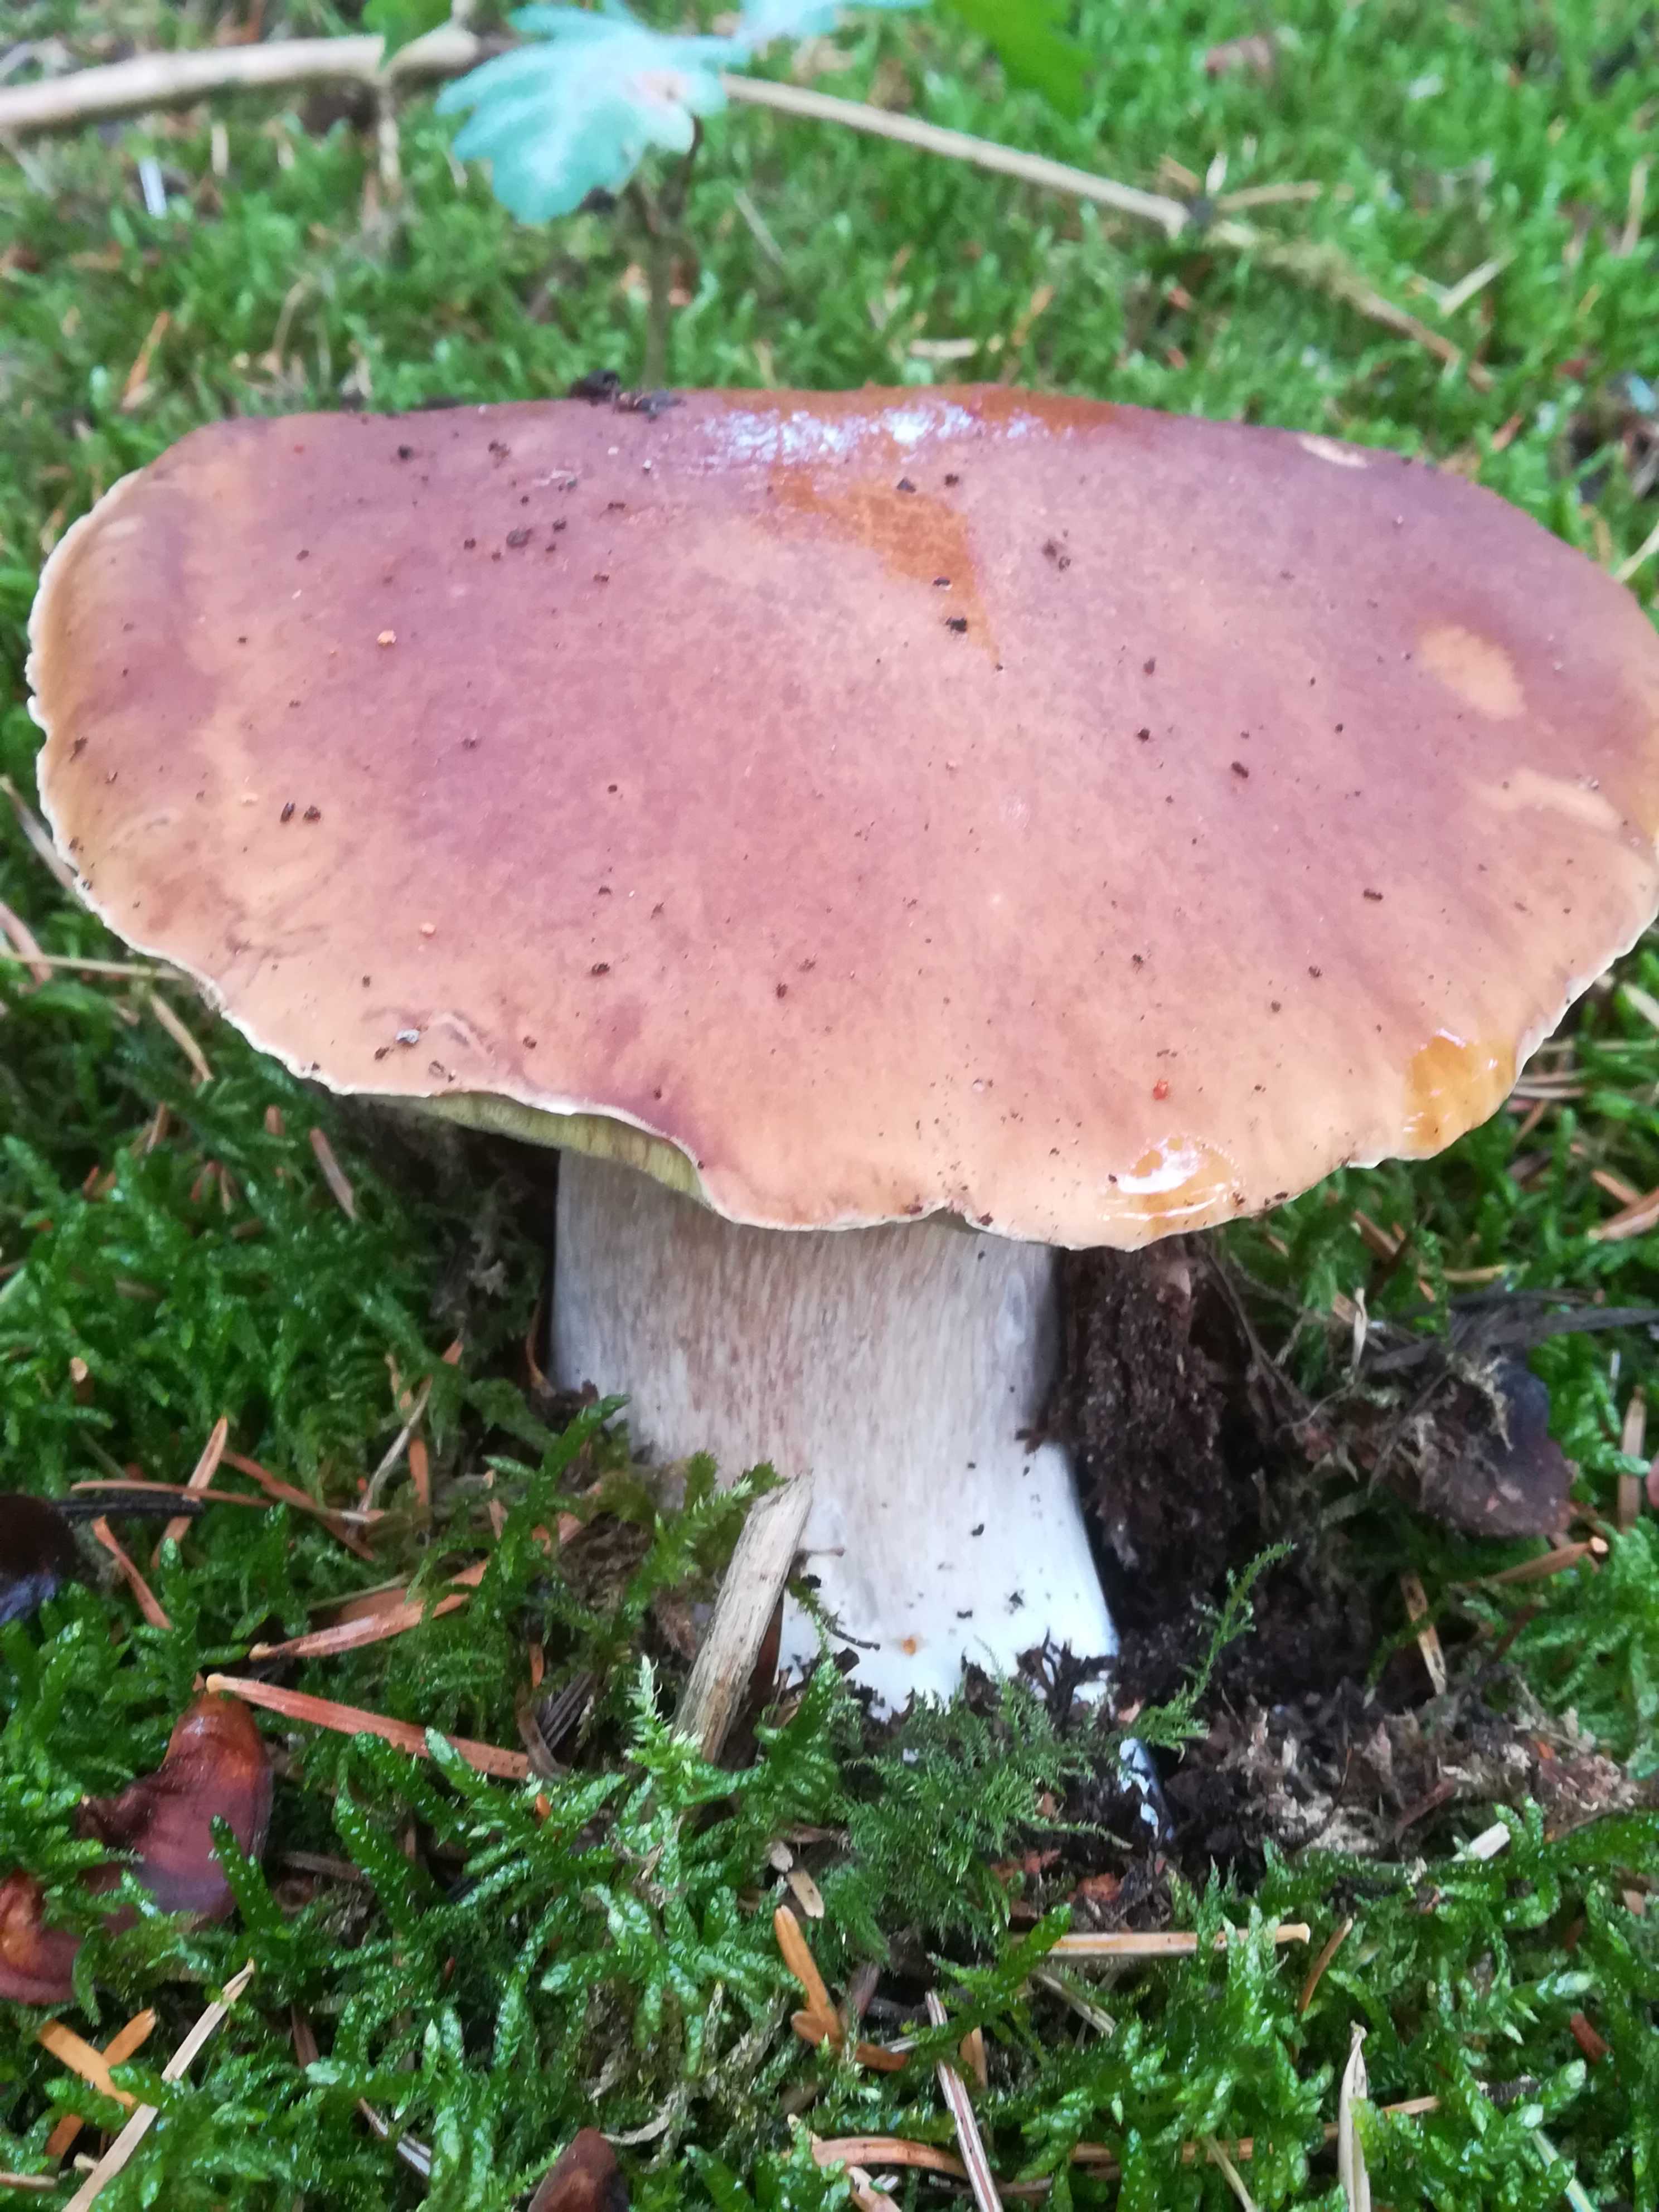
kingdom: Fungi
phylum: Basidiomycota
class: Agaricomycetes
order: Boletales
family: Boletaceae
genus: Boletus
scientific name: Boletus edulis
